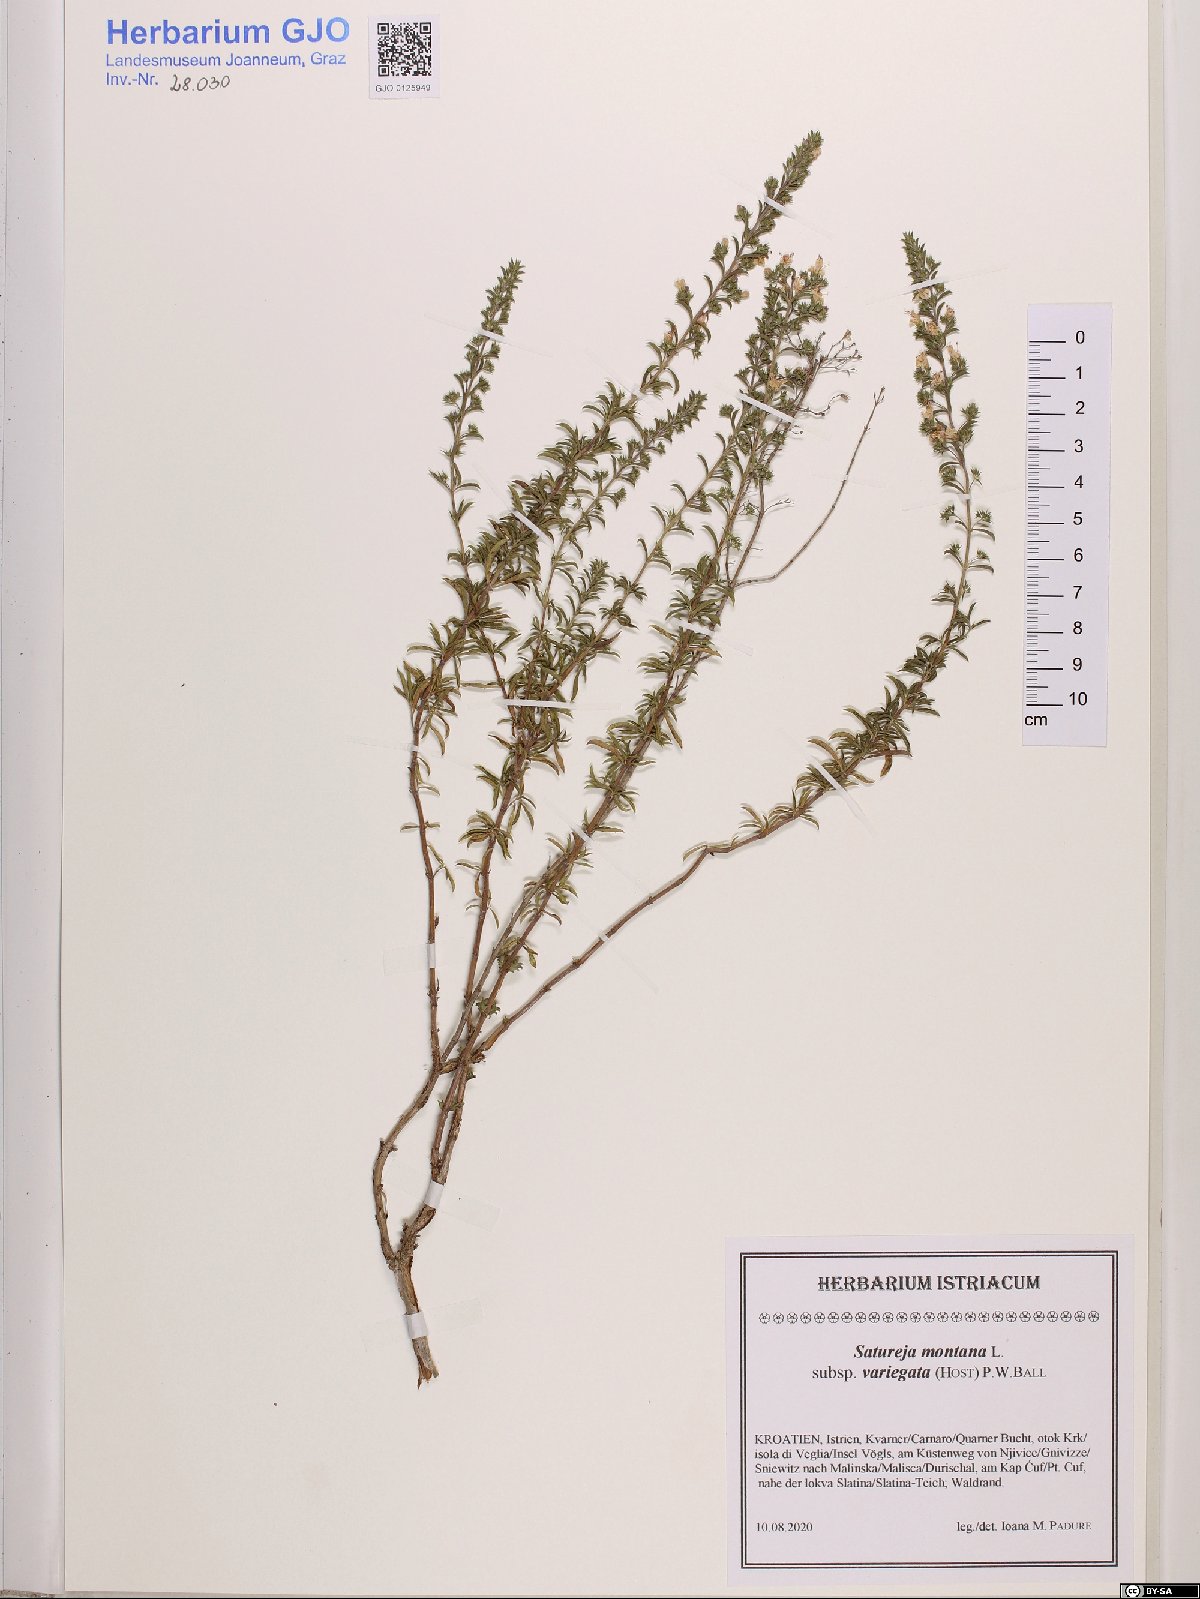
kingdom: Plantae
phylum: Tracheophyta
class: Magnoliopsida
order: Lamiales
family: Lamiaceae
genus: Satureja
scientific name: Satureja montana
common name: Winter savory
